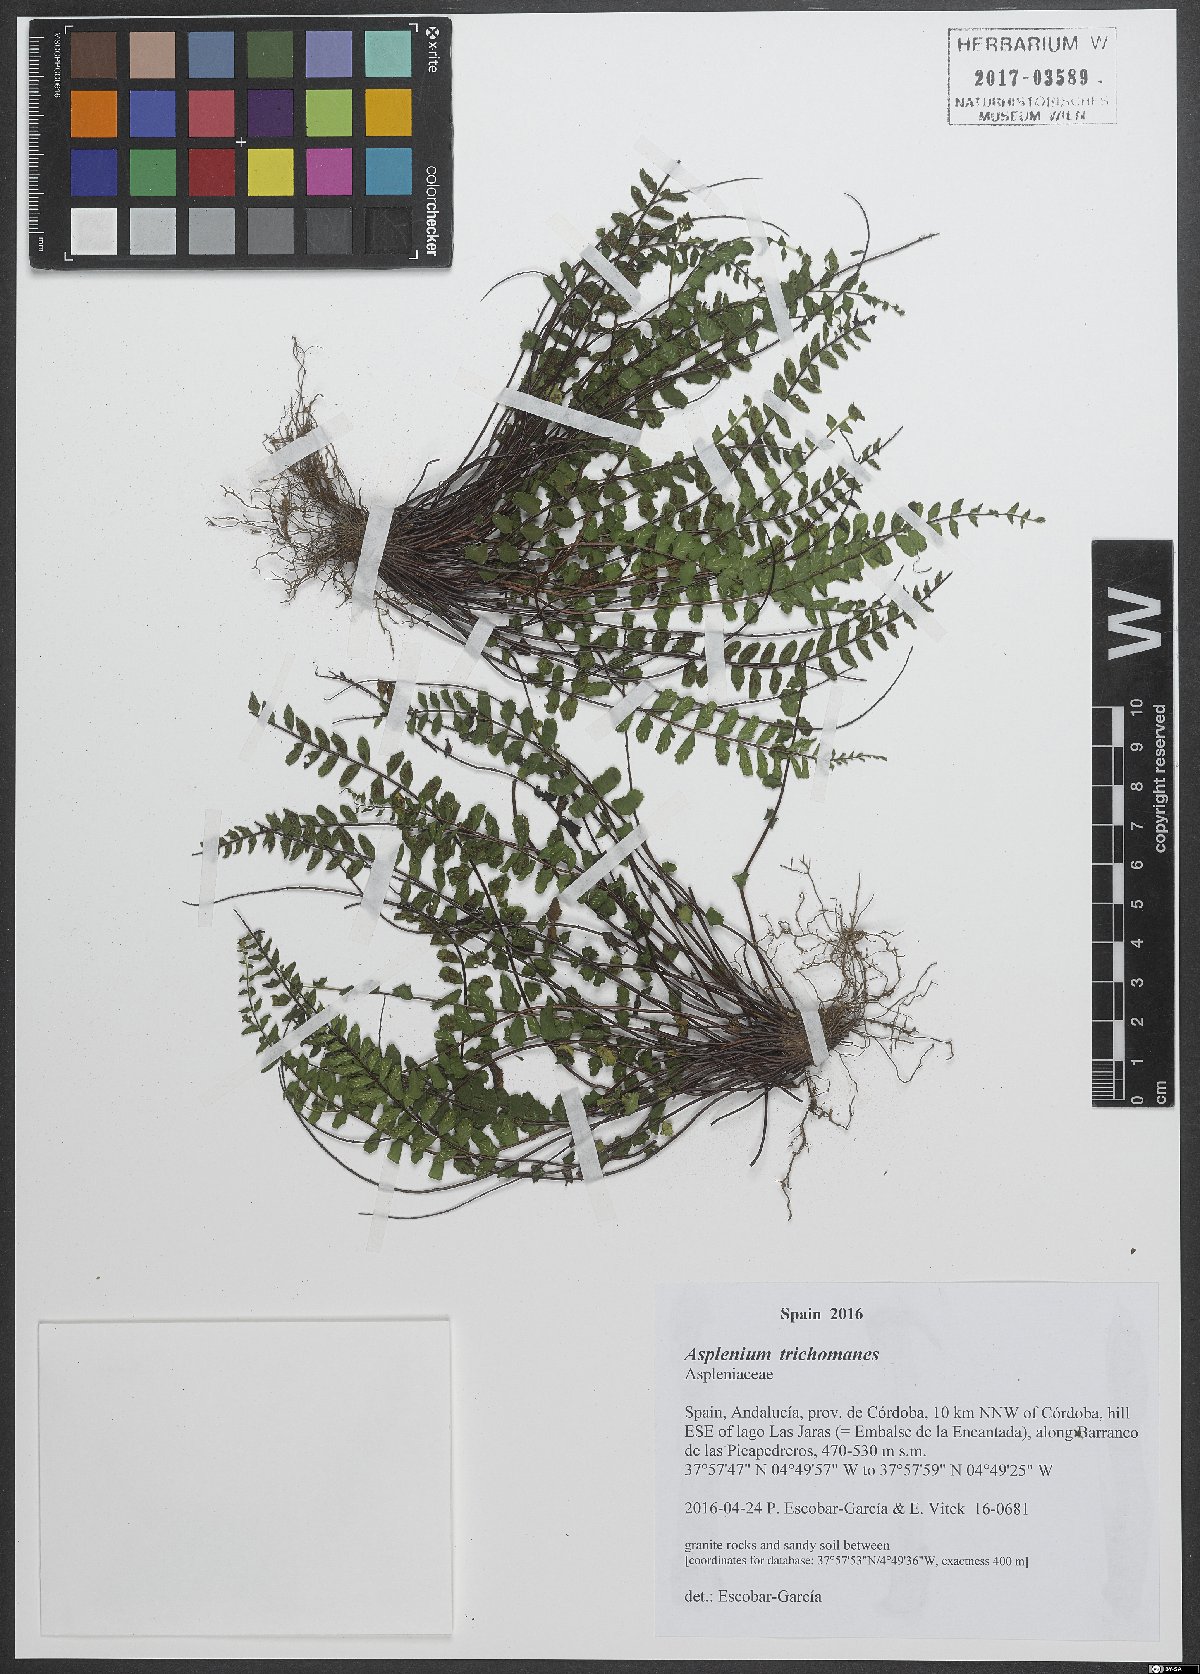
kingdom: Plantae
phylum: Tracheophyta
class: Polypodiopsida
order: Polypodiales
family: Aspleniaceae
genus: Asplenium
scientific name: Asplenium trichomanes
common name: Maidenhair spleenwort
